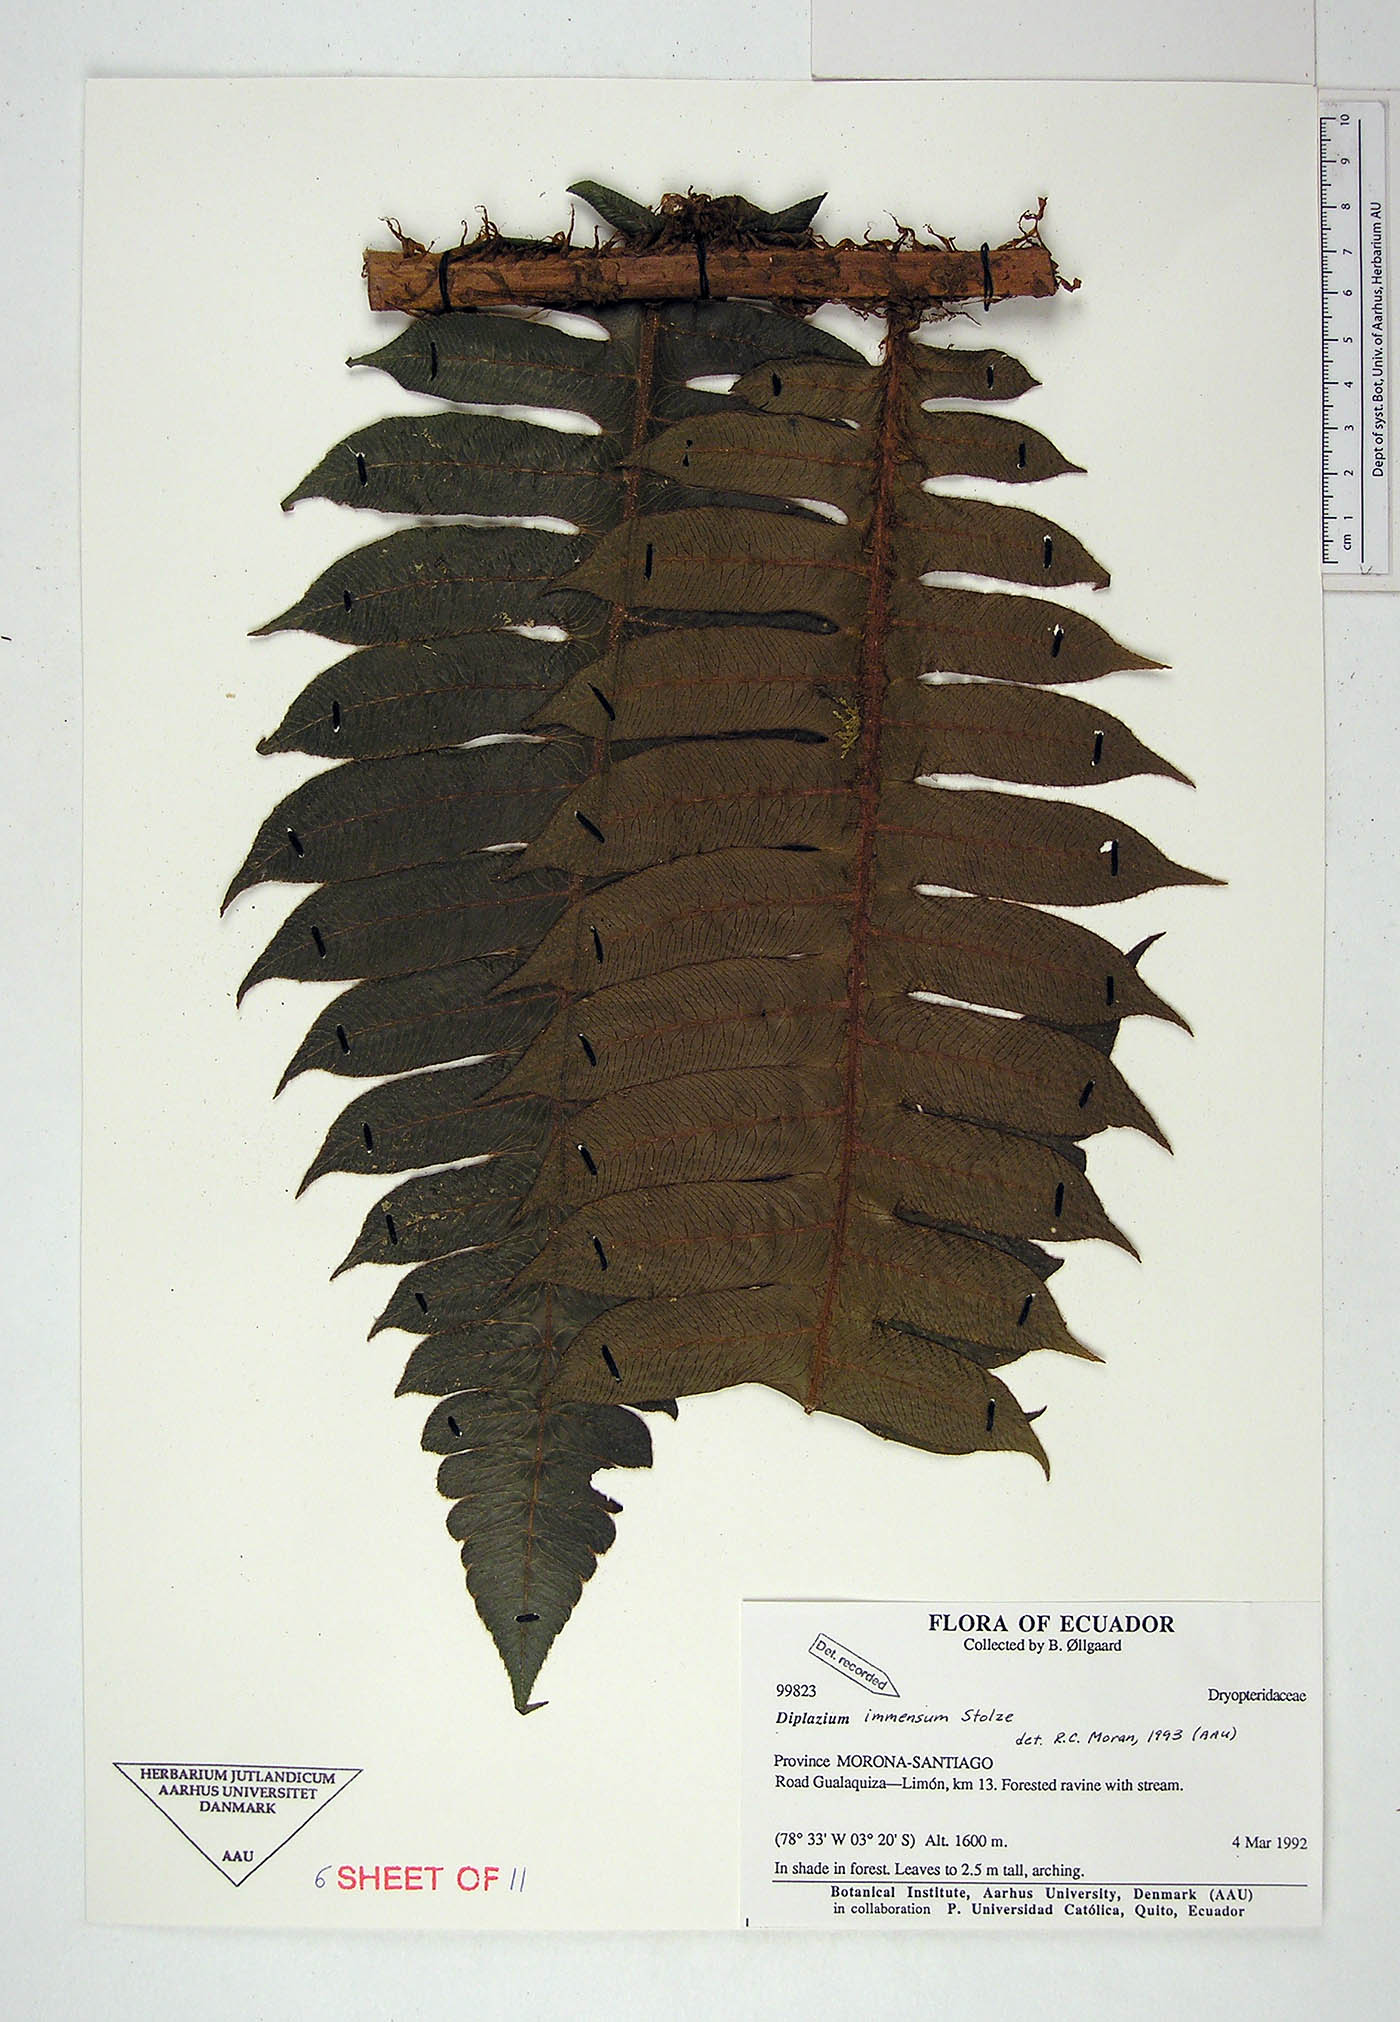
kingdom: Plantae
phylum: Tracheophyta
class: Polypodiopsida
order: Polypodiales
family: Athyriaceae
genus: Diplazium
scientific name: Diplazium immensum
